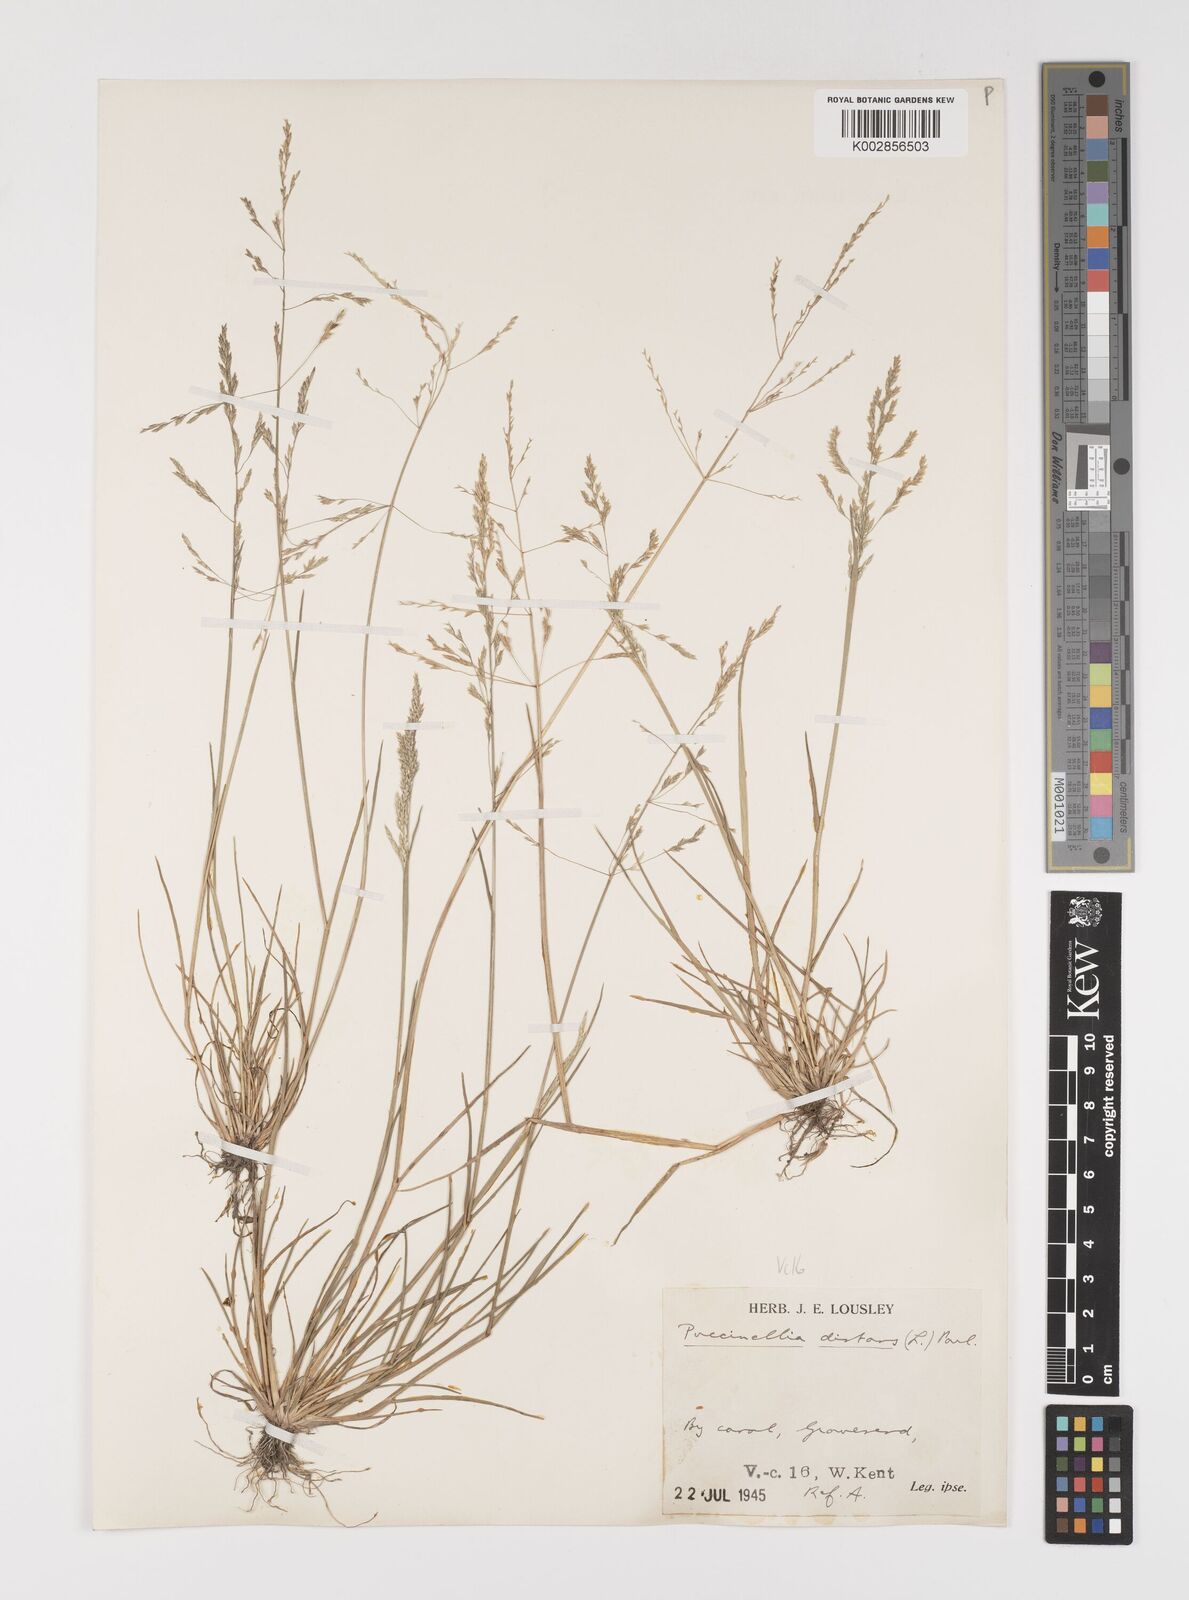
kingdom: Plantae
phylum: Tracheophyta
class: Liliopsida
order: Poales
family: Poaceae
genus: Puccinellia
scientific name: Puccinellia distans
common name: Weeping alkaligrass
